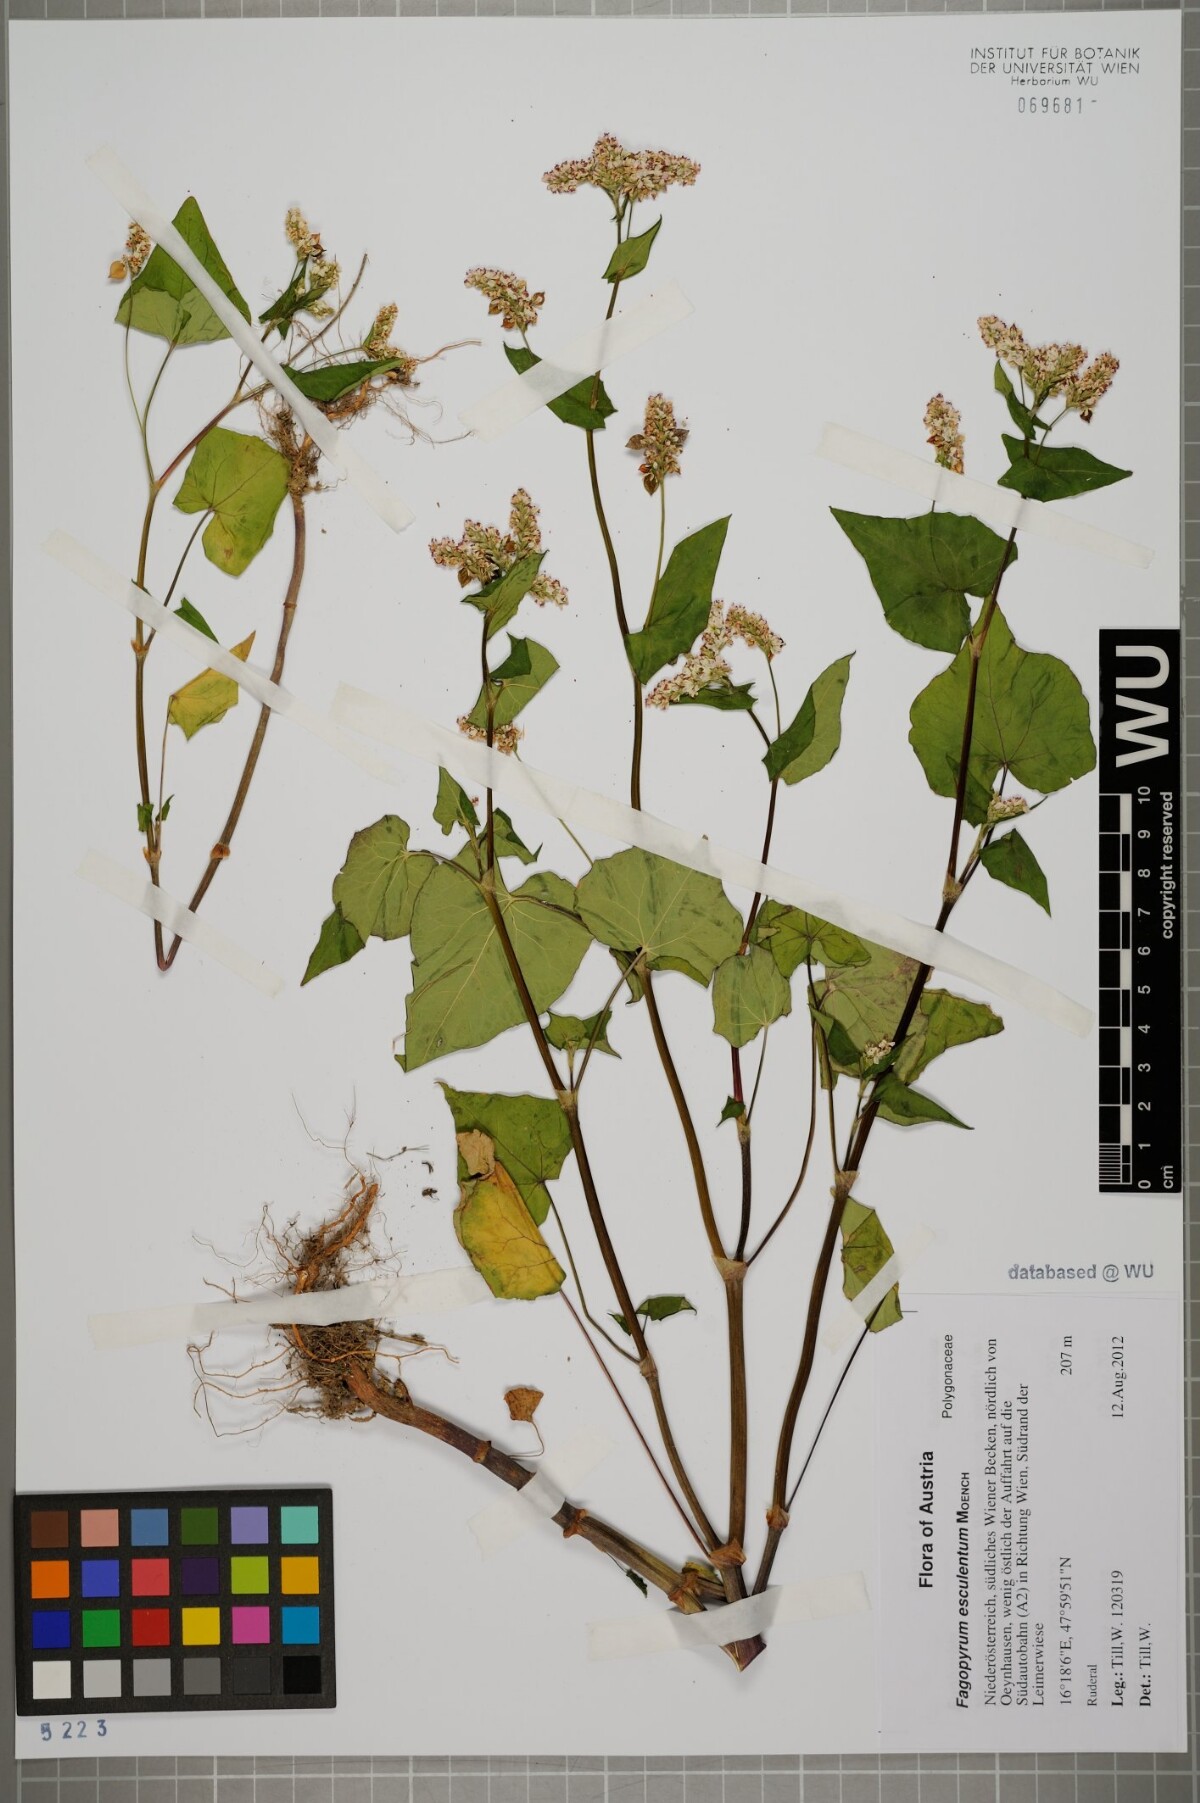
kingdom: Plantae
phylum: Tracheophyta
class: Magnoliopsida
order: Caryophyllales
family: Polygonaceae
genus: Fagopyrum
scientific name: Fagopyrum esculentum
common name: Buckwheat
